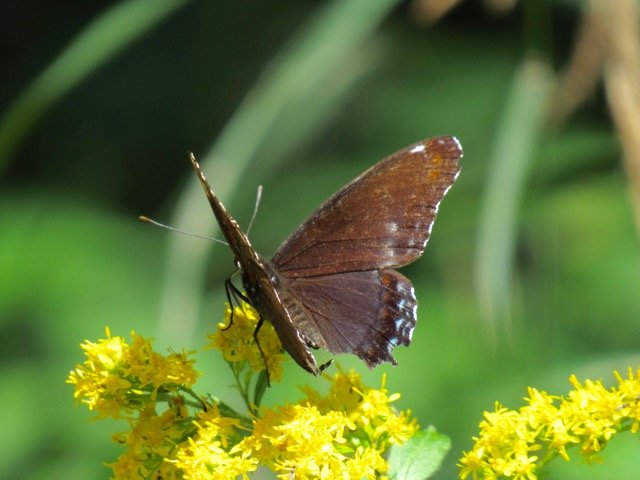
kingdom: Animalia
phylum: Arthropoda
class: Insecta
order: Lepidoptera
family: Nymphalidae
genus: Limenitis
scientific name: Limenitis
